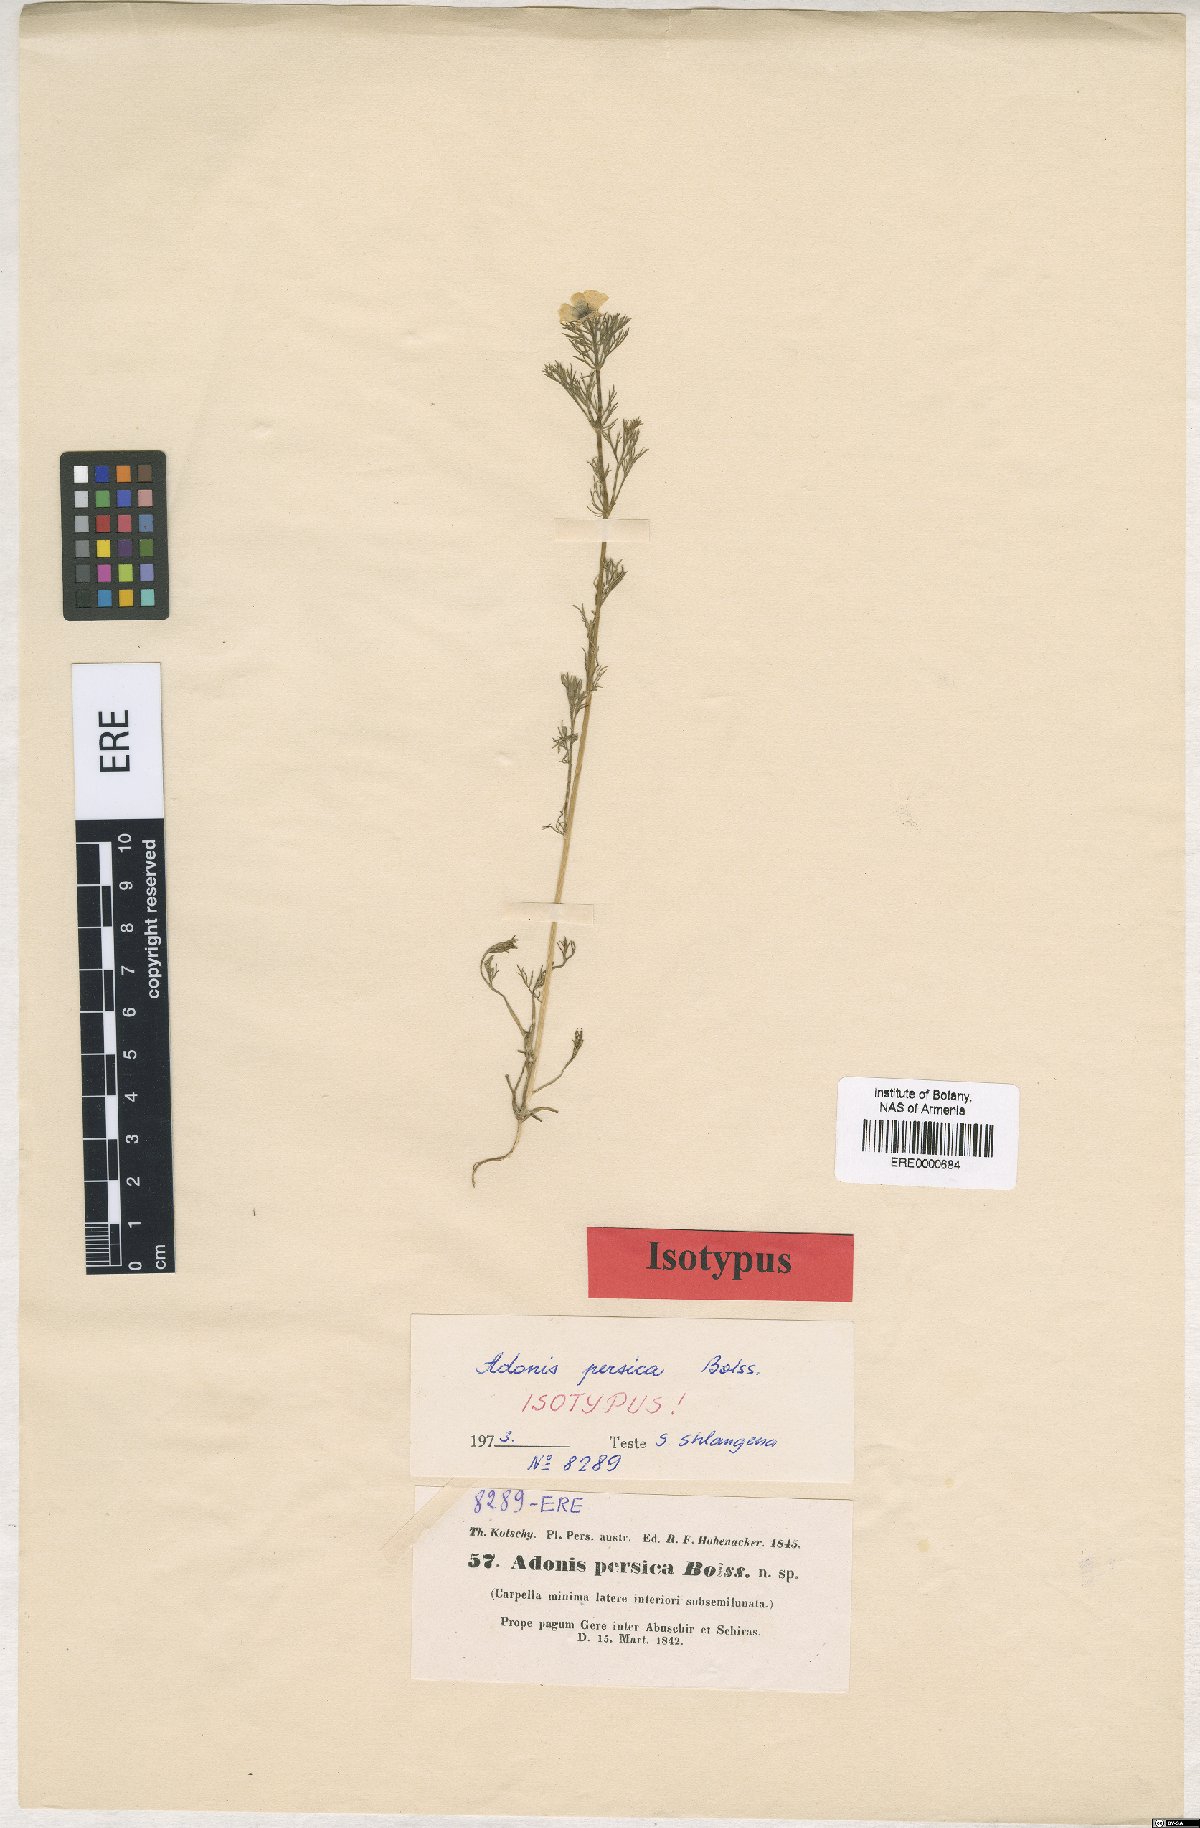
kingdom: Plantae
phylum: Tracheophyta
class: Magnoliopsida
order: Ranunculales
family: Ranunculaceae
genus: Adonis
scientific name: Adonis dentata
